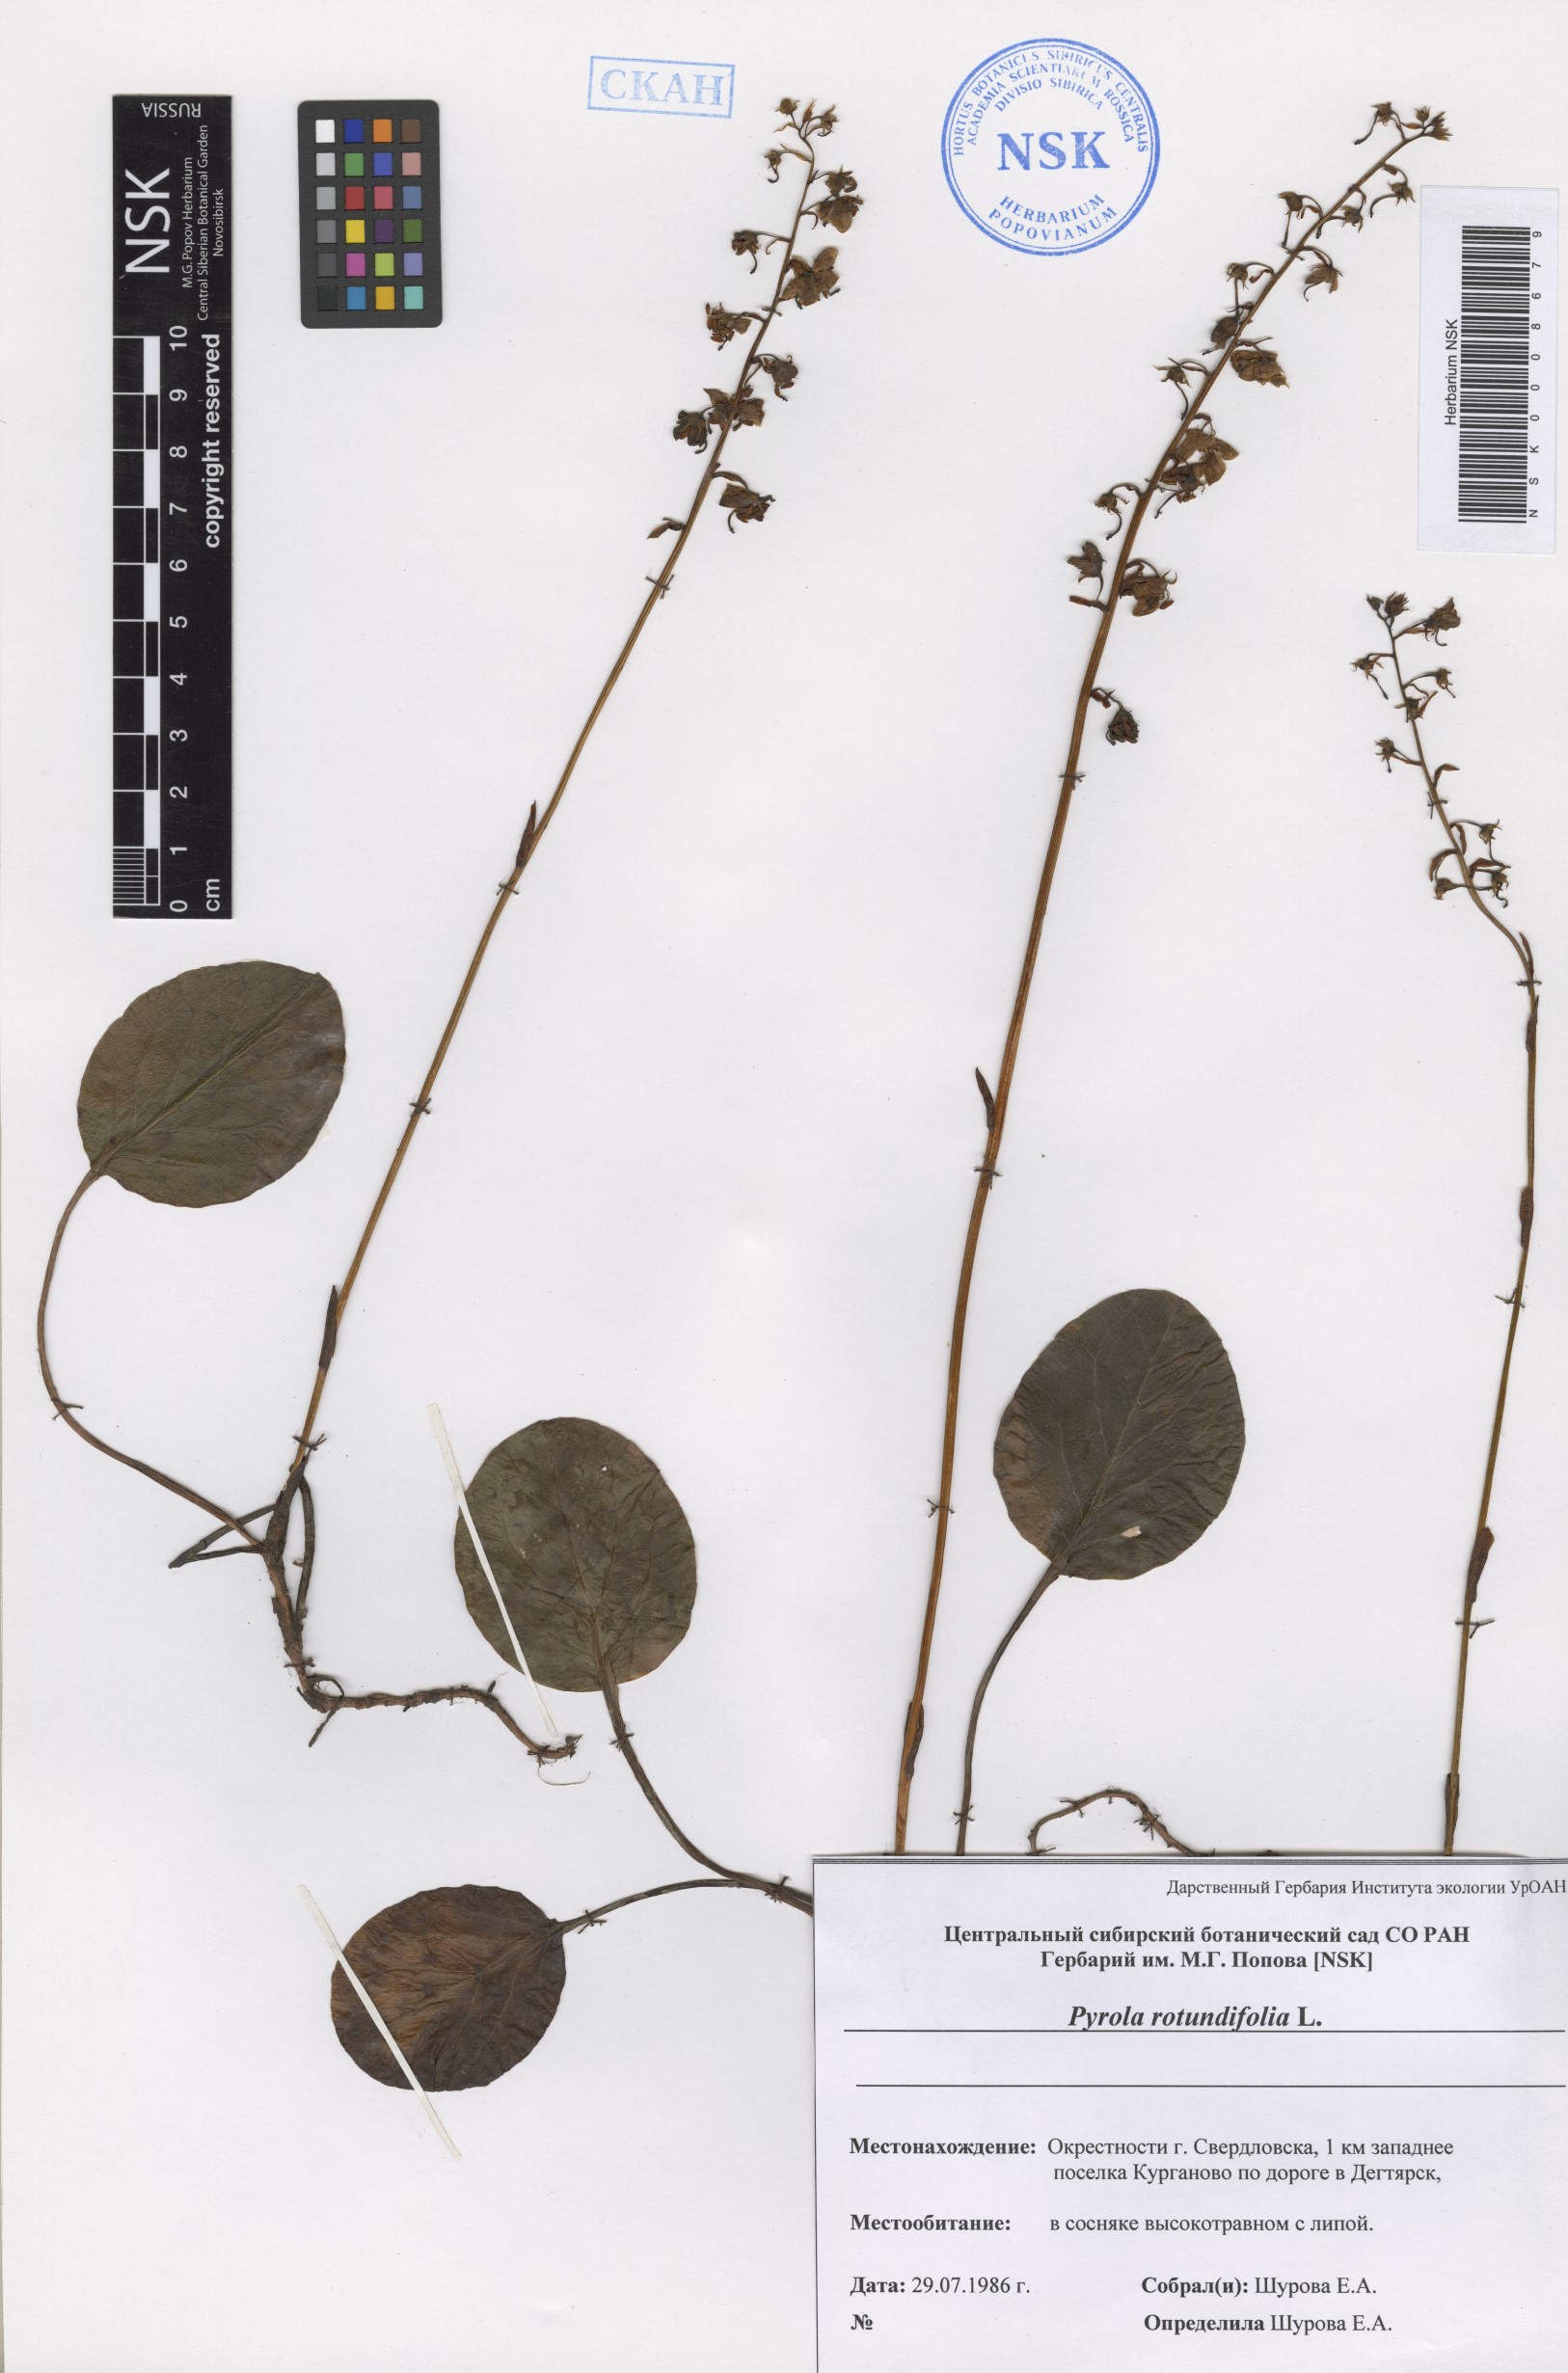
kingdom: Plantae
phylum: Tracheophyta
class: Magnoliopsida
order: Ericales
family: Ericaceae
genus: Pyrola
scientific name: Pyrola rotundifolia
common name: Round-leaved wintergreen
